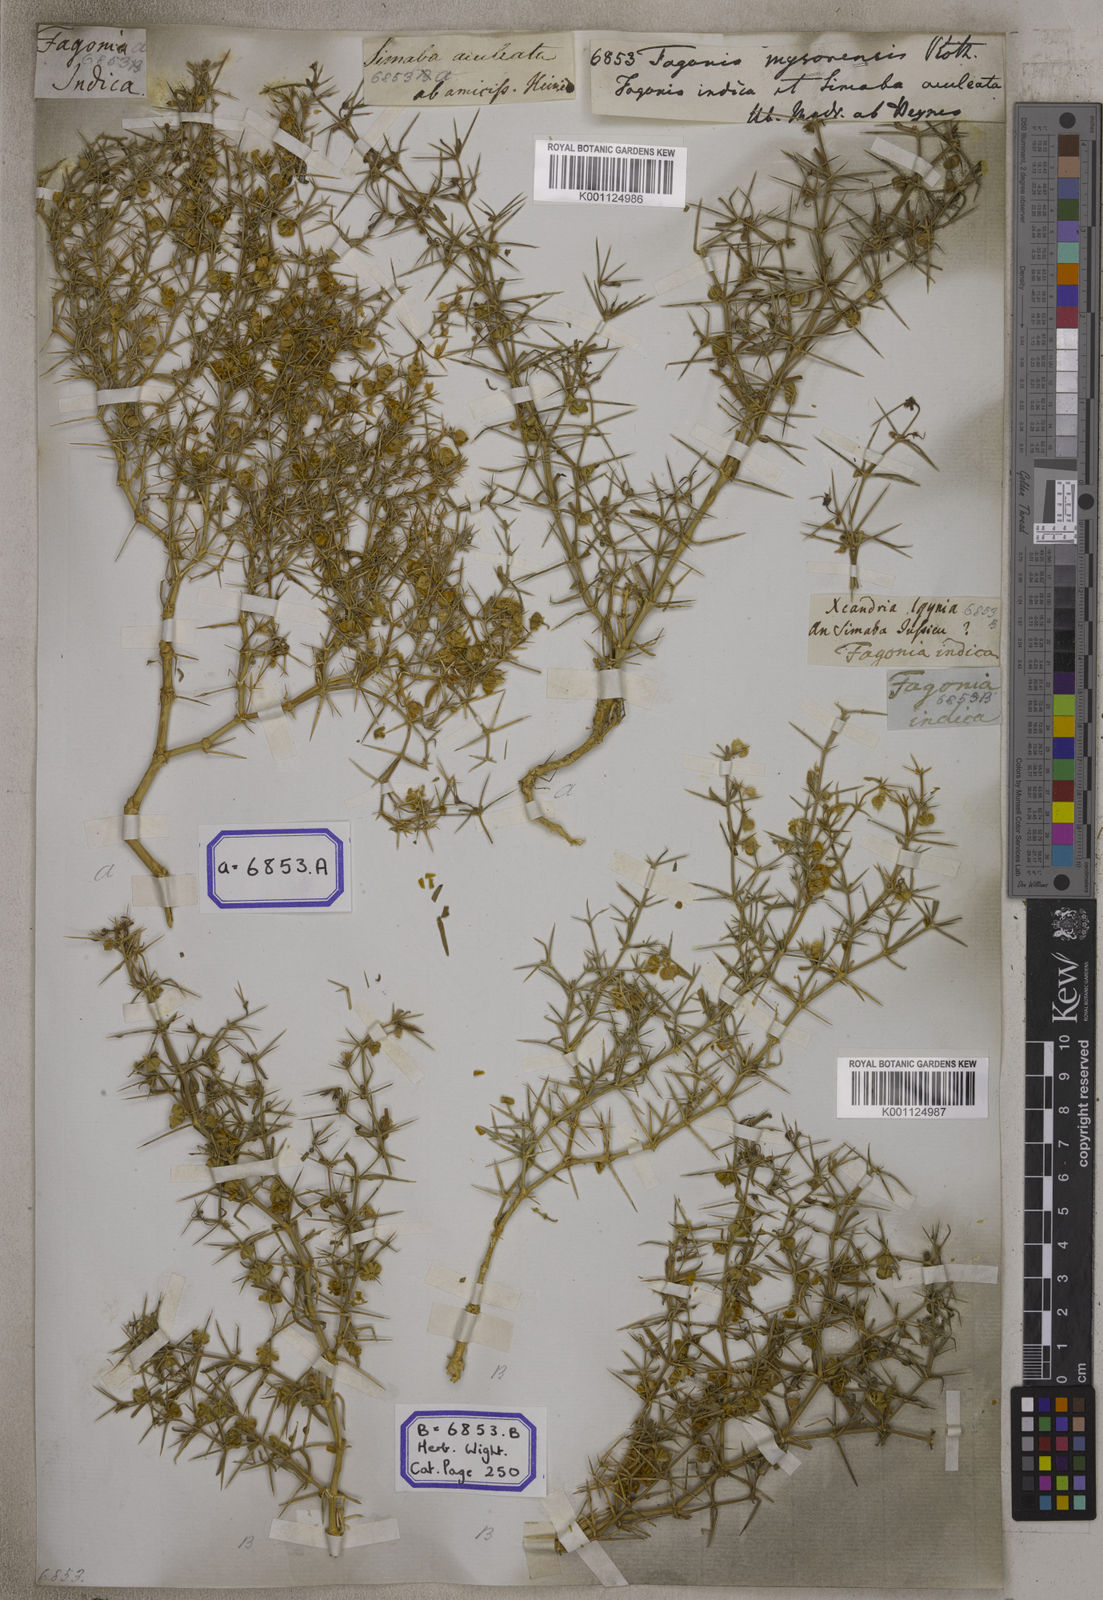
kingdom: Plantae
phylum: Tracheophyta
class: Magnoliopsida
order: Zygophyllales
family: Zygophyllaceae
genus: Fagonia
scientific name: Fagonia indica
